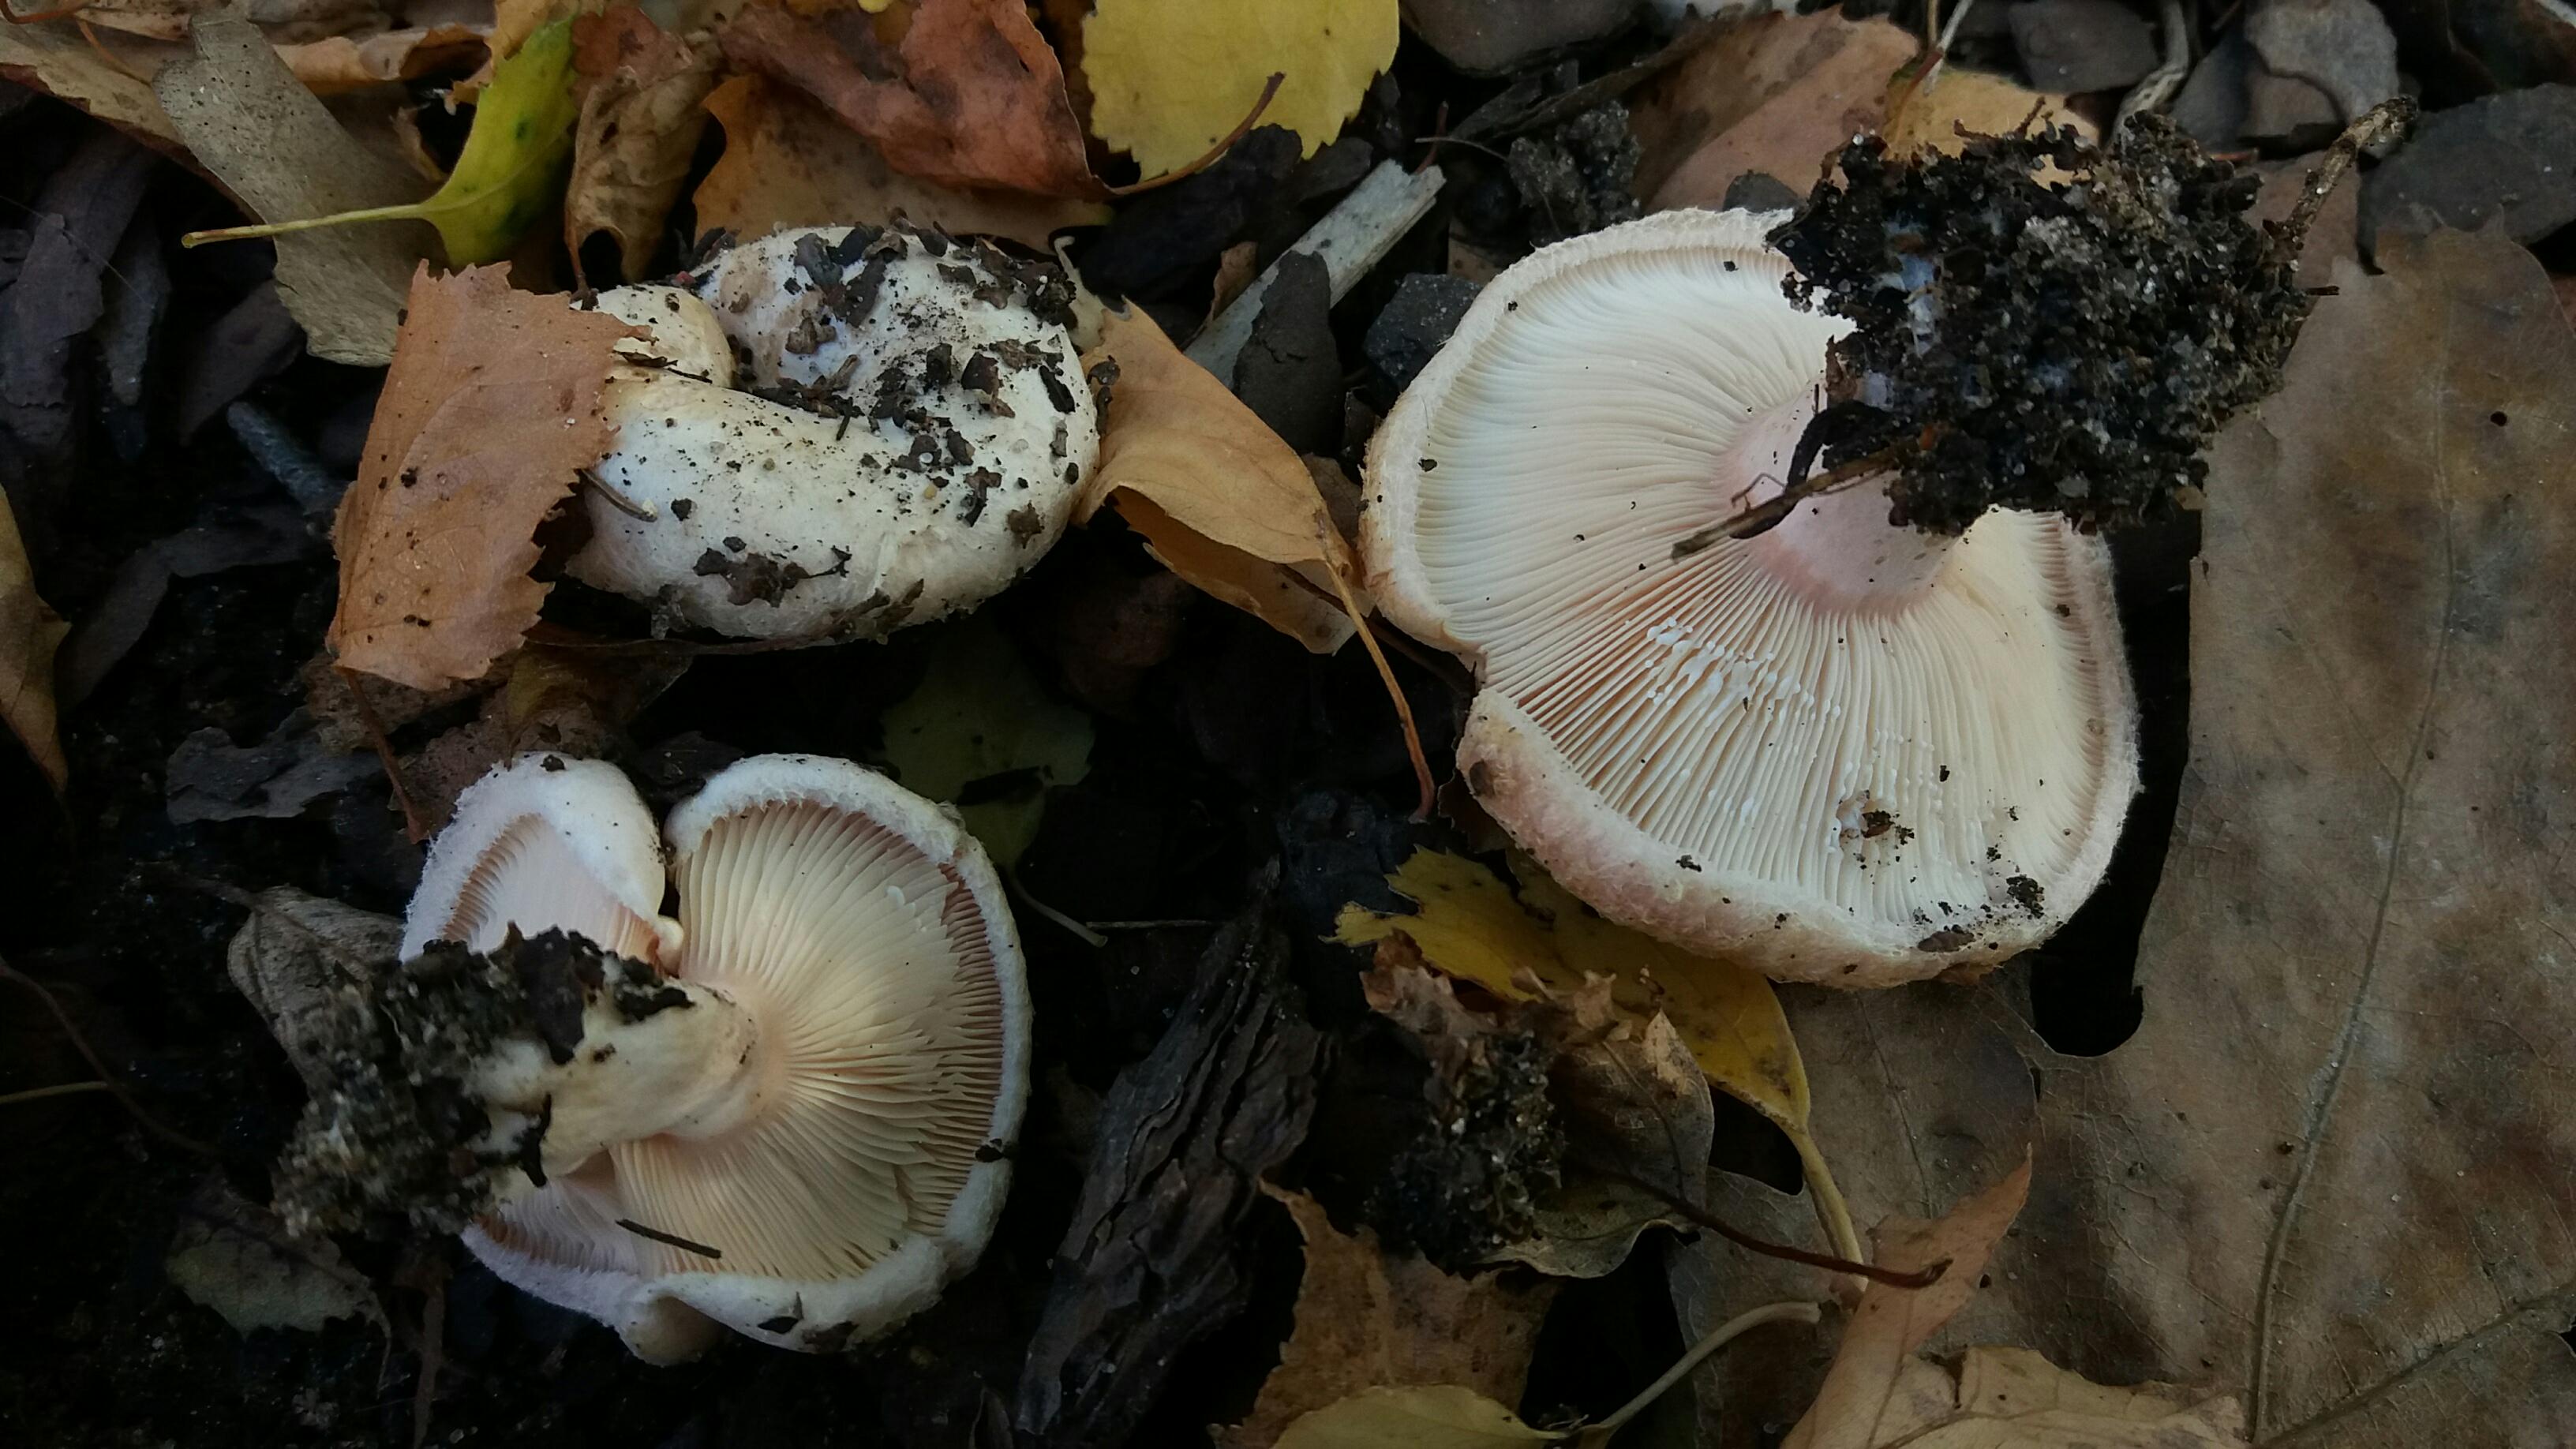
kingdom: Fungi
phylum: Basidiomycota
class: Agaricomycetes
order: Russulales
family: Russulaceae
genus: Lactarius
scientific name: Lactarius pubescens
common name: dunet mælkehat
